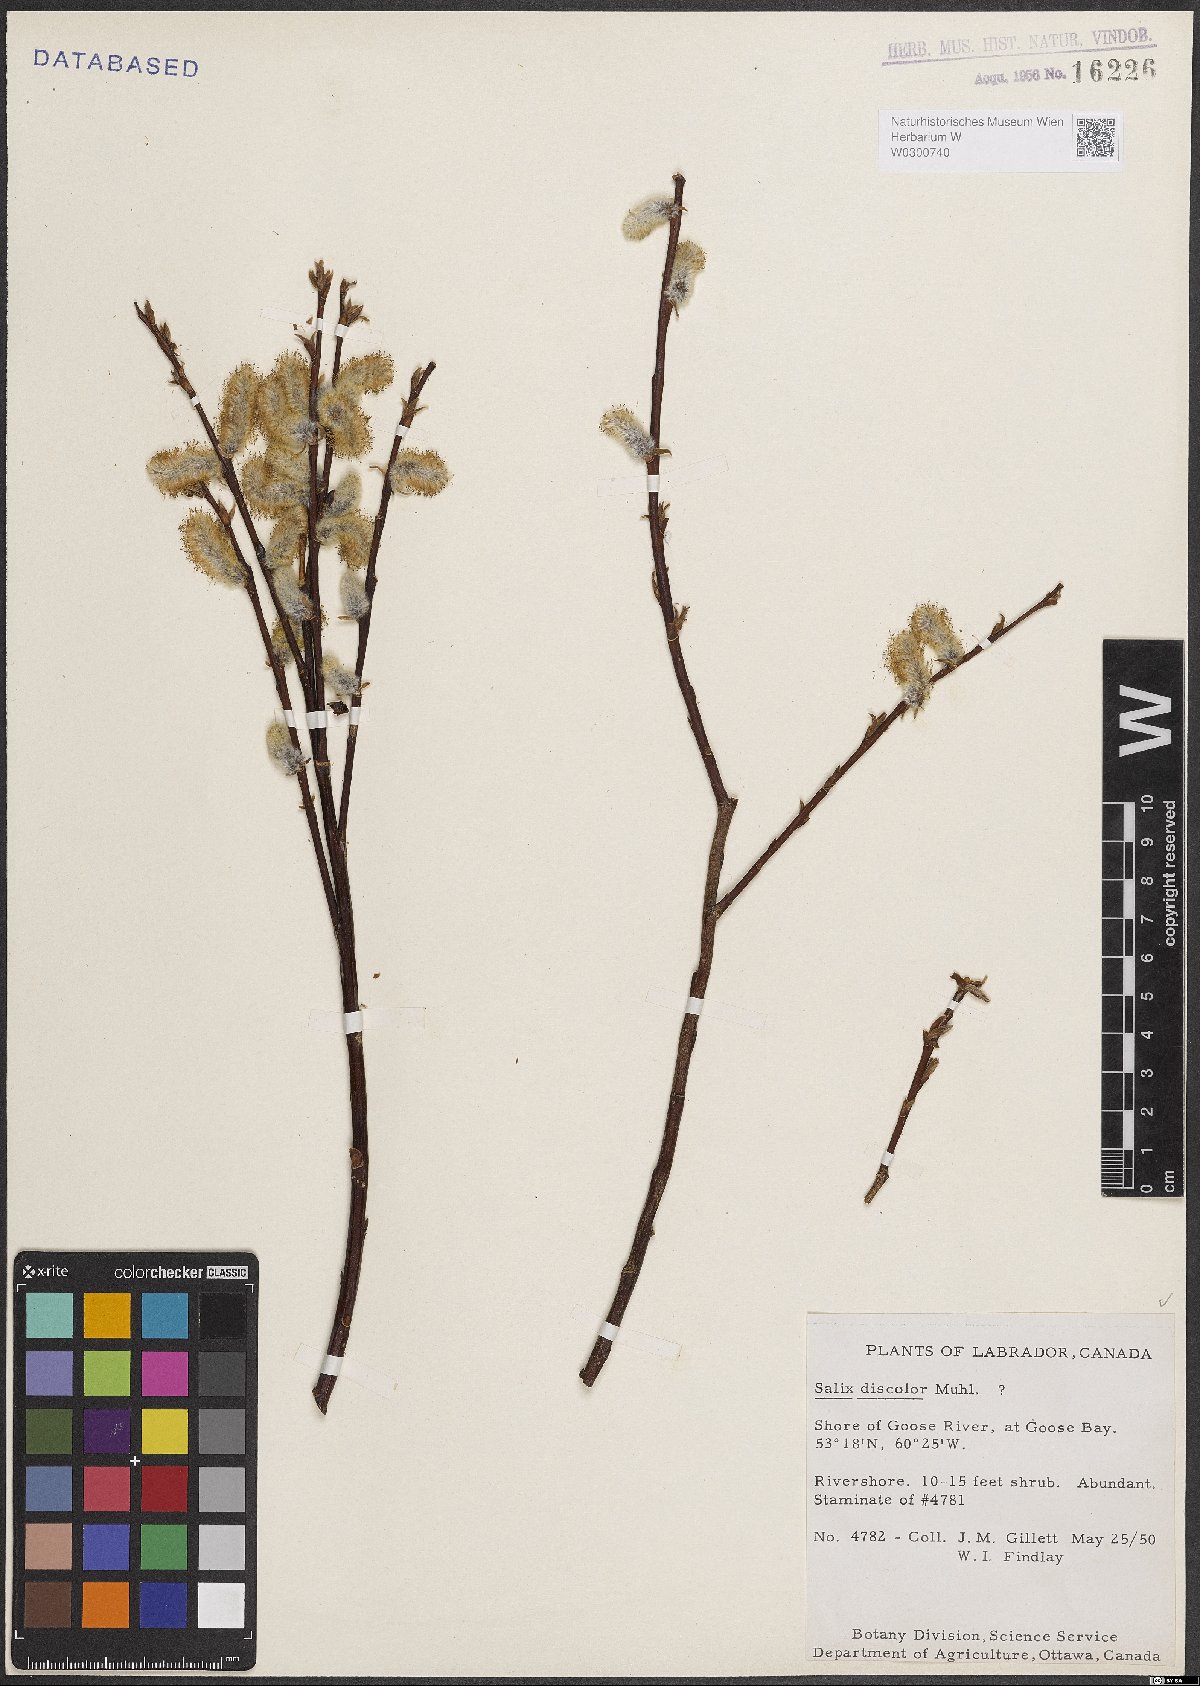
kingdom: Plantae
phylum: Tracheophyta
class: Magnoliopsida
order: Malpighiales
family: Salicaceae
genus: Salix
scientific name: Salix discolor
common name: Glaucous willow
